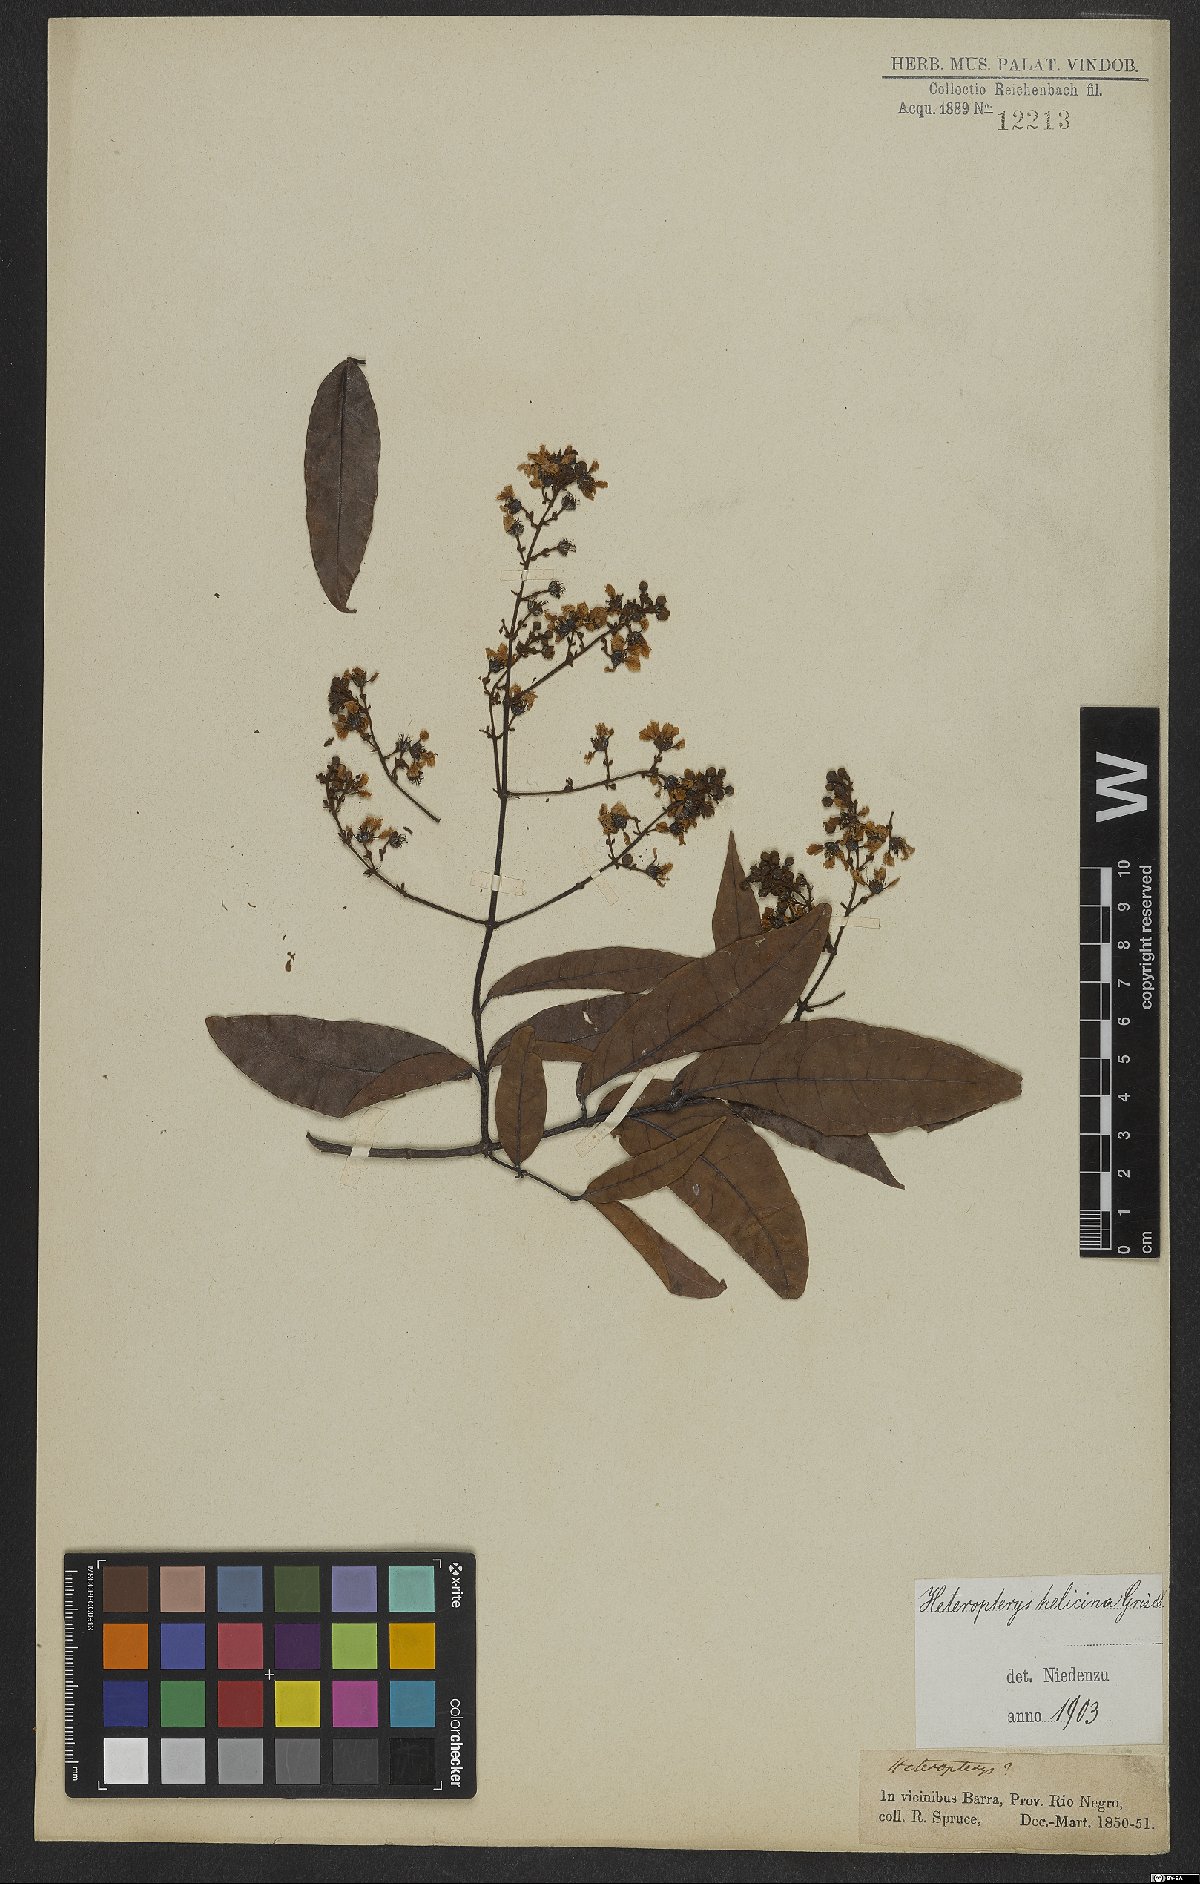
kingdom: Plantae
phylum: Tracheophyta
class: Magnoliopsida
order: Malpighiales
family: Malpighiaceae
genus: Heteropterys
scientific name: Heteropterys orinocensis
